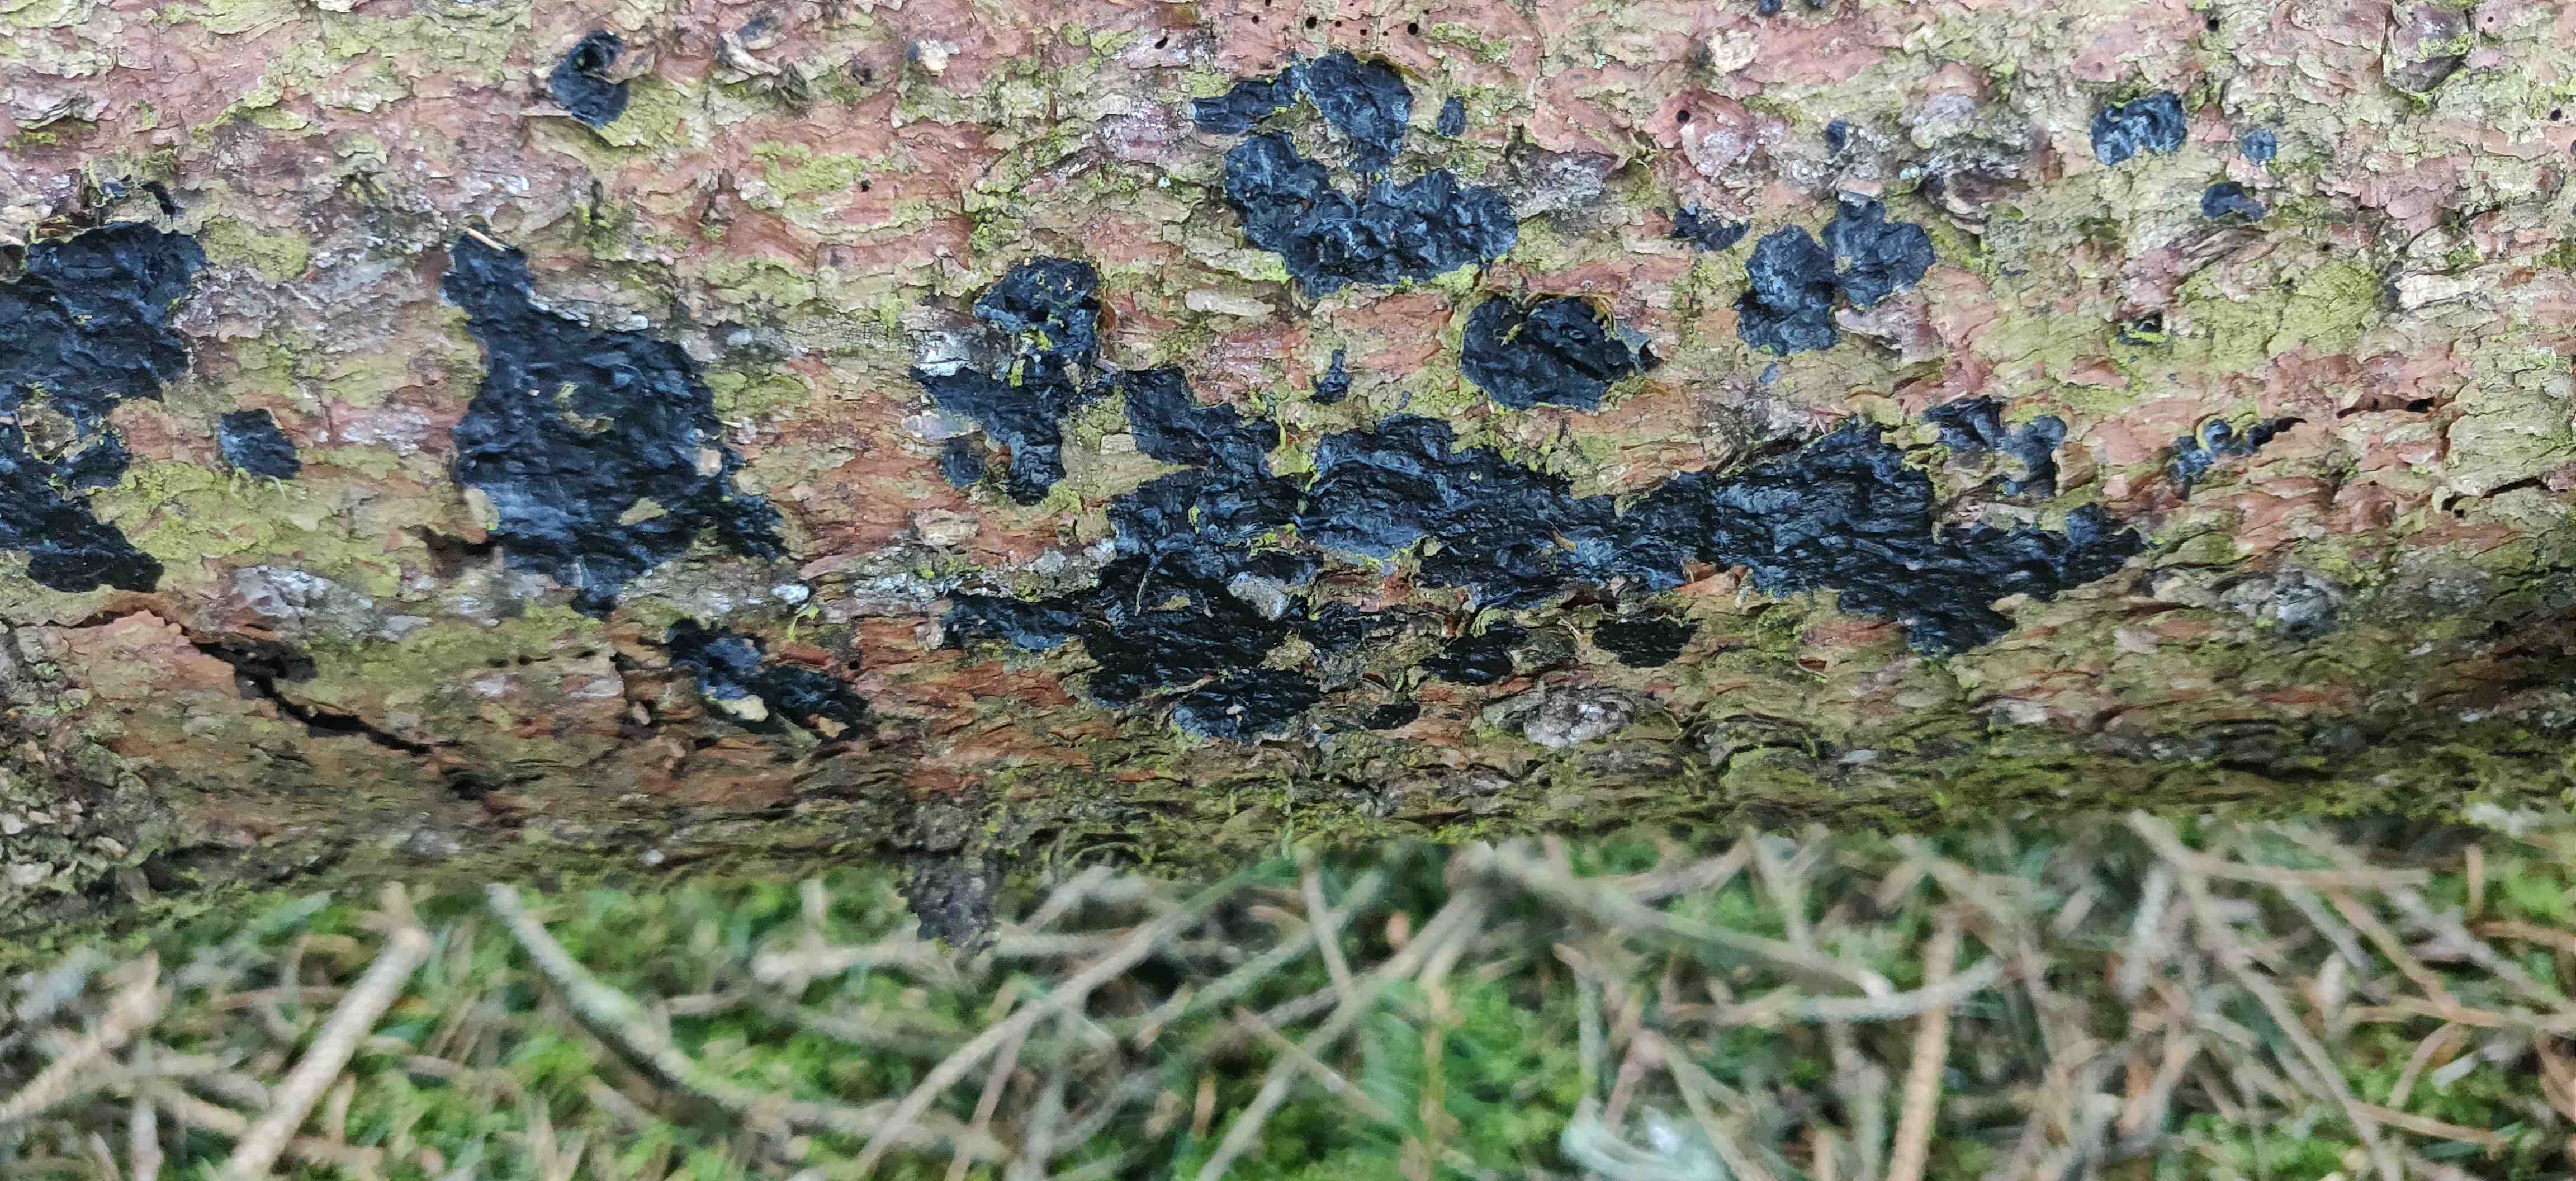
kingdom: Fungi
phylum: Basidiomycota
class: Agaricomycetes
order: Auriculariales
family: Auriculariaceae
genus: Exidia
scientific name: Exidia pithya
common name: gran-bævretop
